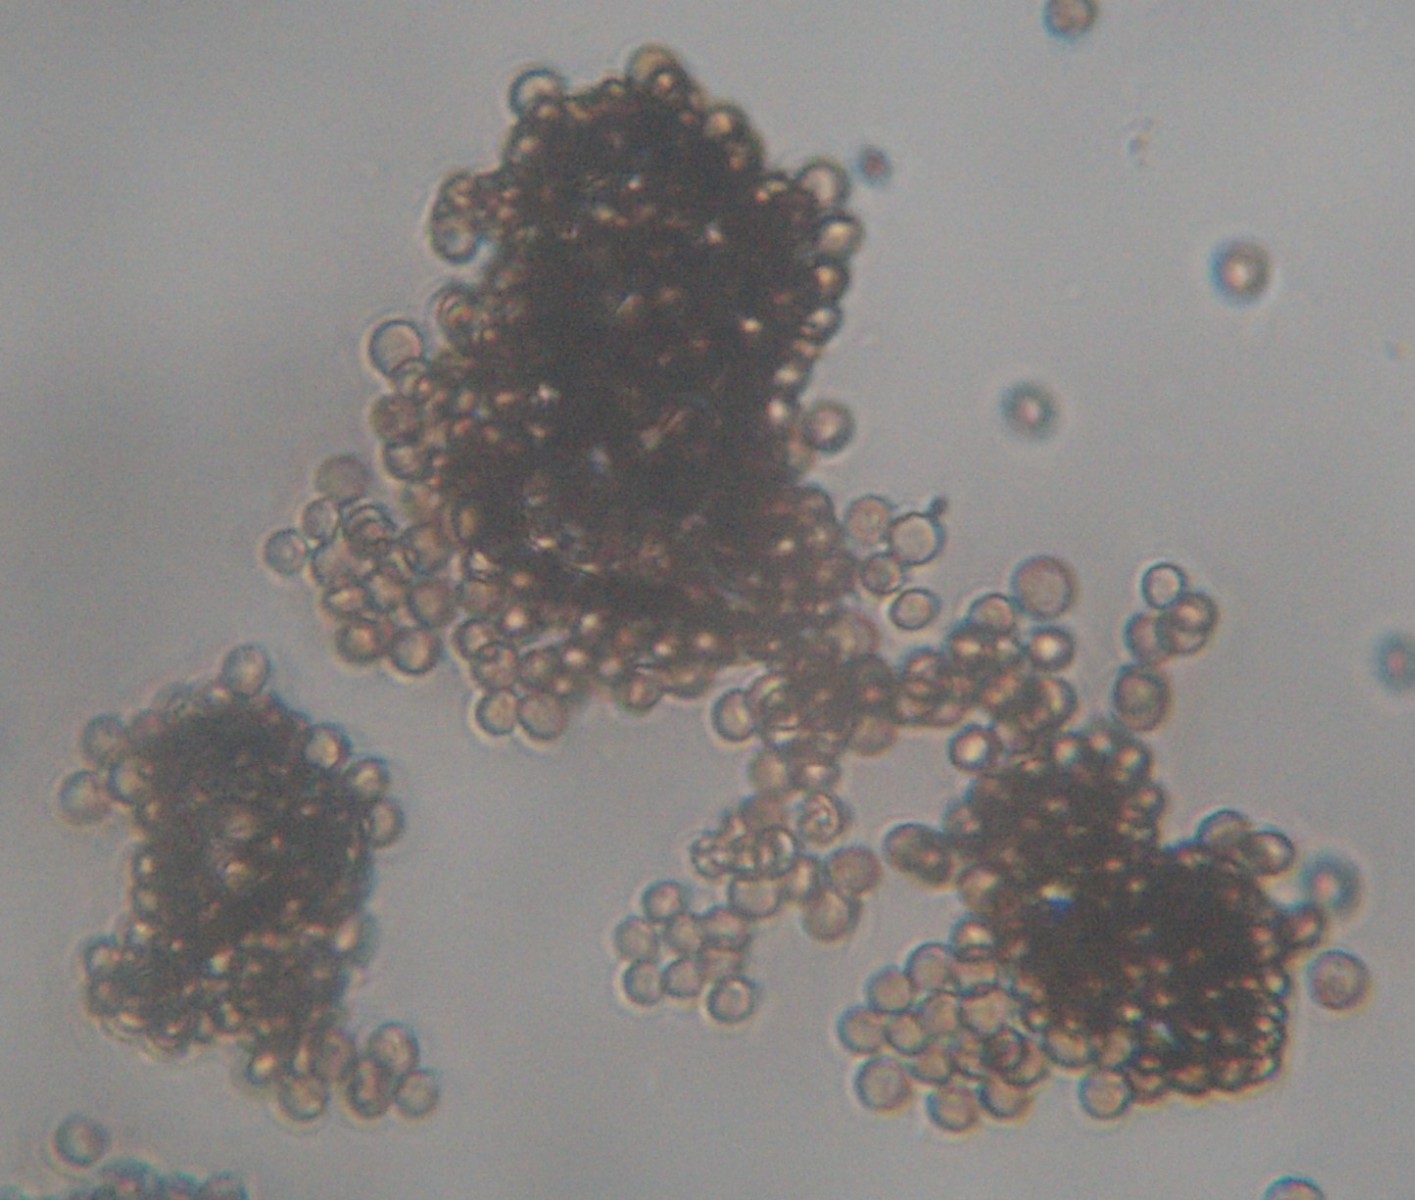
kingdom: Fungi
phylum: Basidiomycota
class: Atractiellomycetes
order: Atractiellales
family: Phleogenaceae
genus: Phleogena
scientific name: Phleogena faginea
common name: pudderkølle
